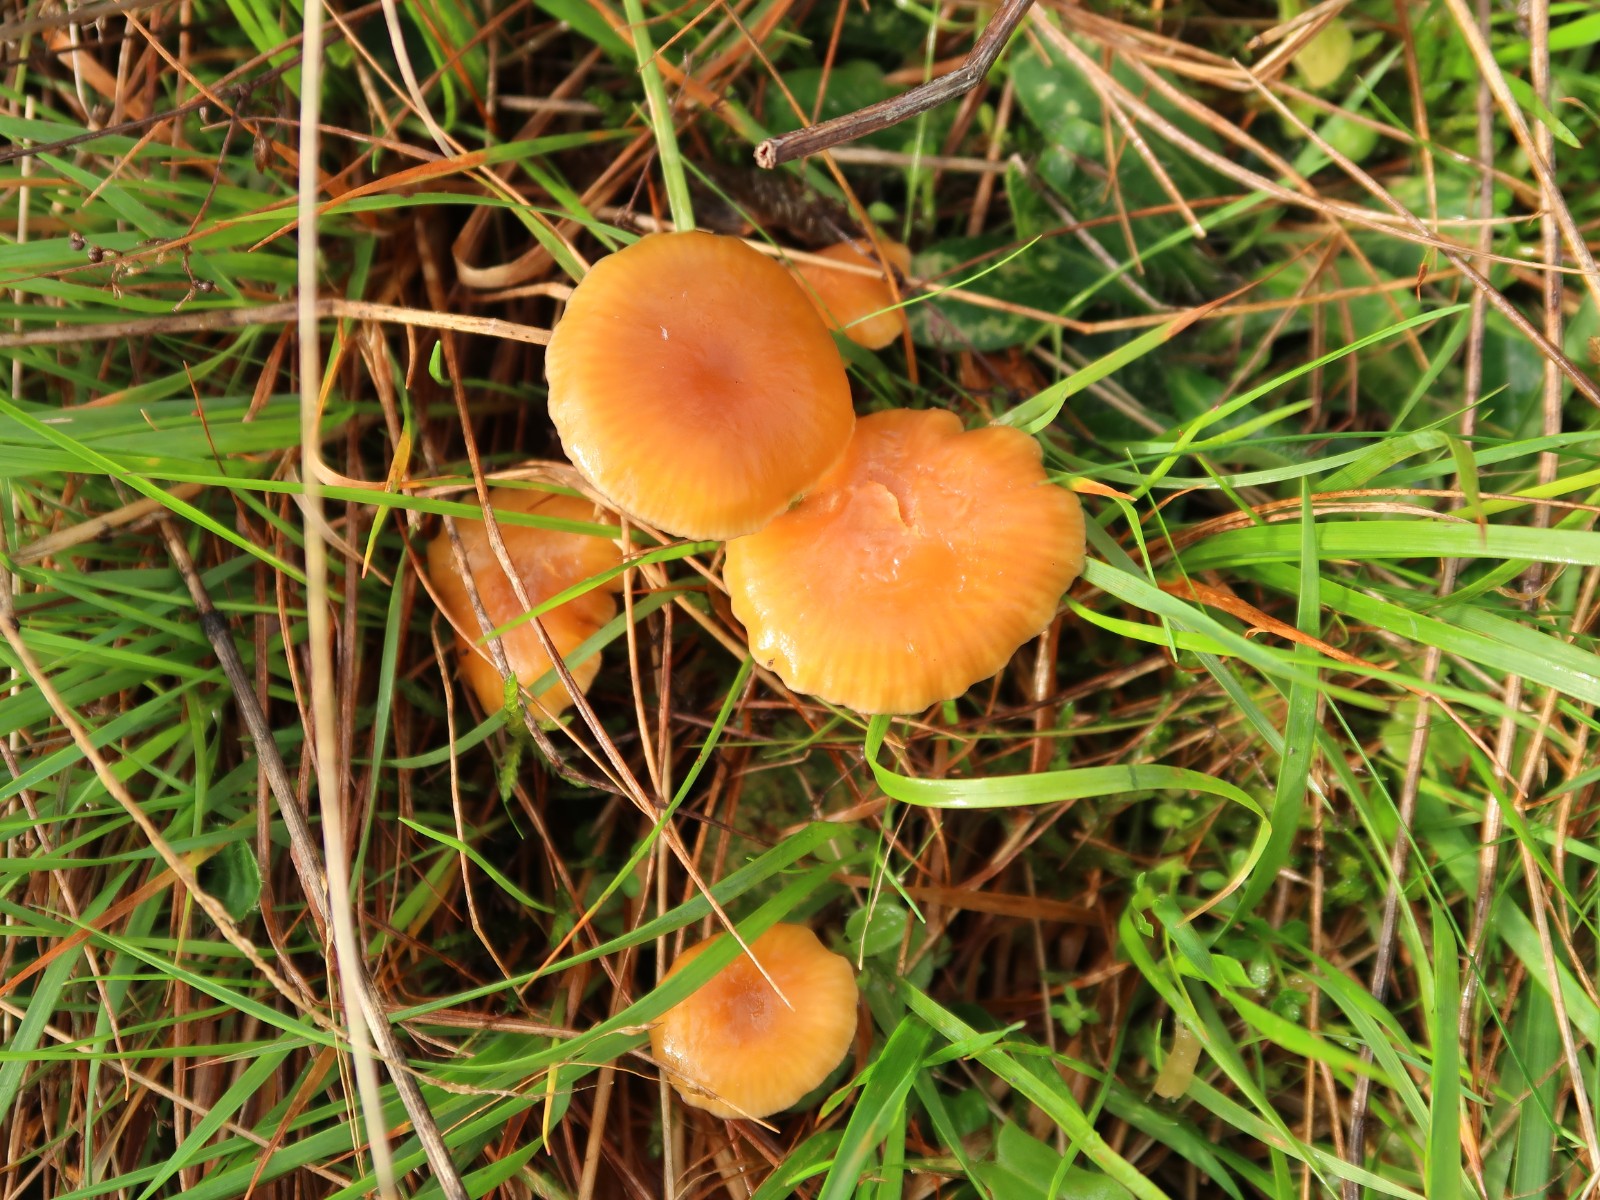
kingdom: Fungi
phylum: Basidiomycota
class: Agaricomycetes
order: Agaricales
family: Hygrophoraceae
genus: Gliophorus
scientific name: Gliophorus laetus
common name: brusk-vokshat
